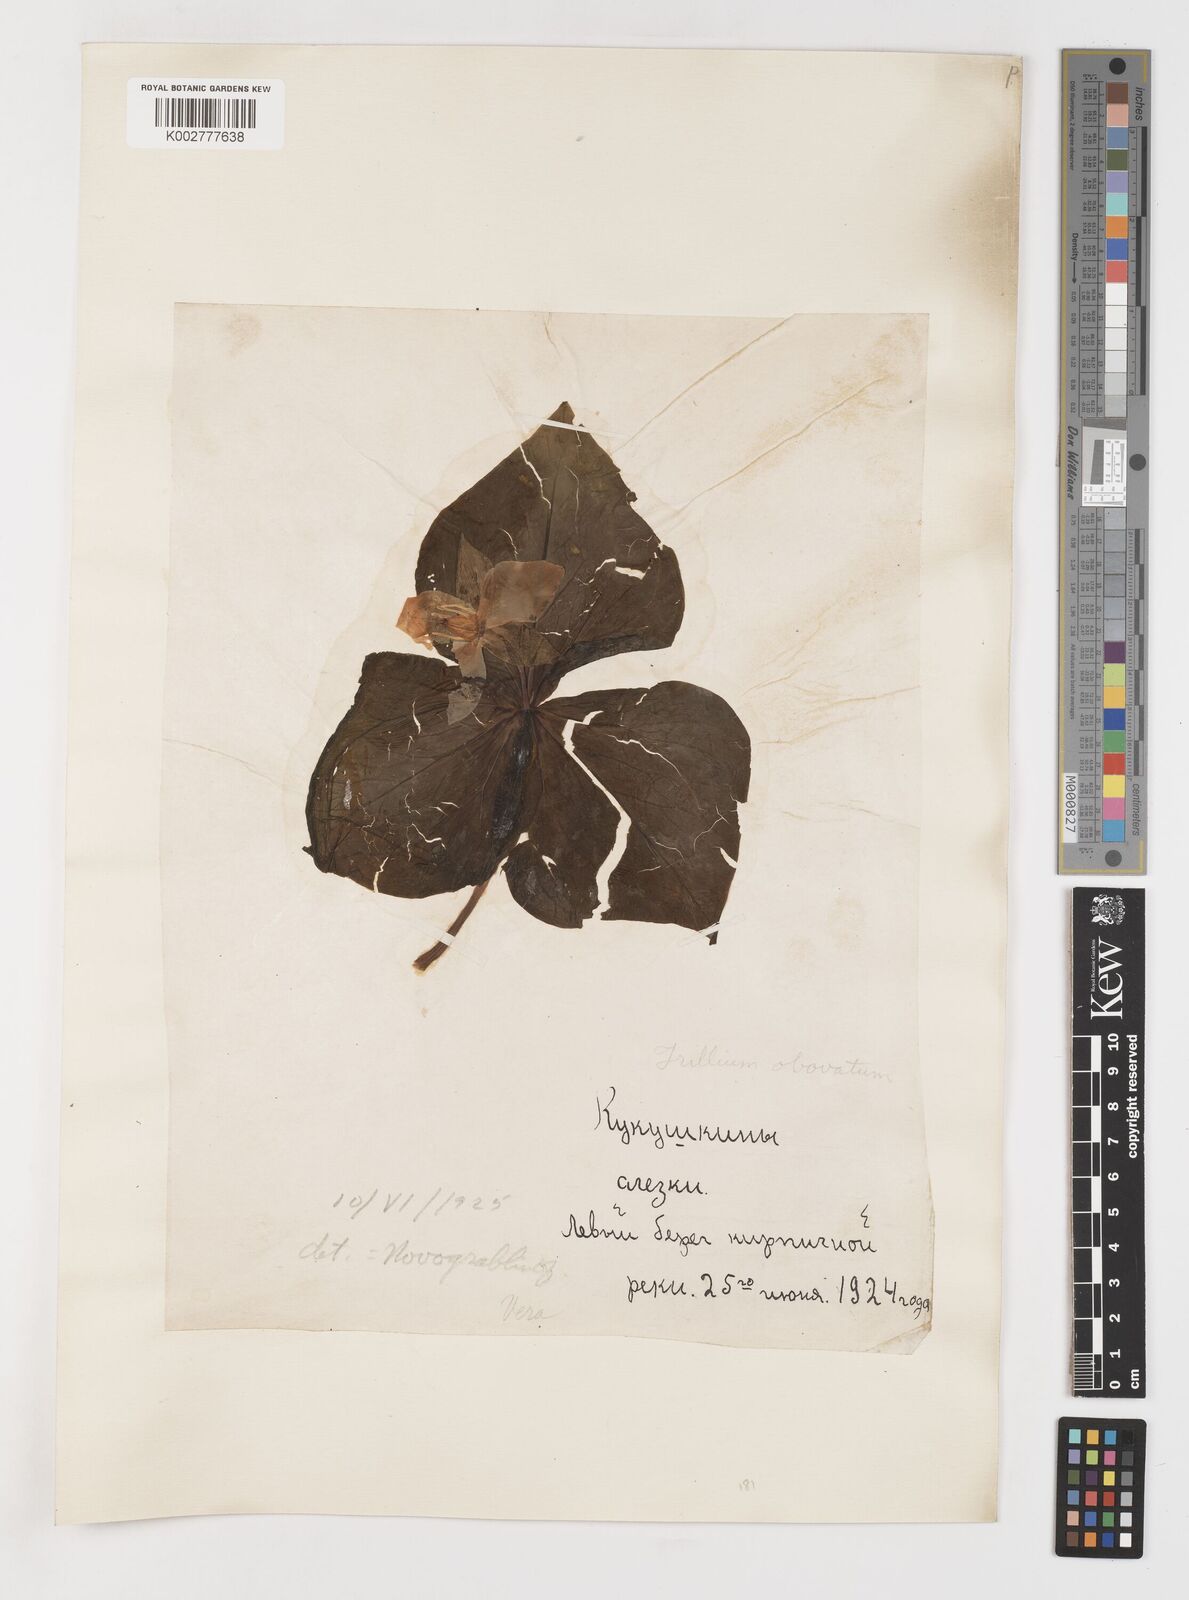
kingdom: Plantae
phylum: Tracheophyta
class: Liliopsida
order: Liliales
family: Melanthiaceae
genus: Trillium
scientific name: Trillium erectum
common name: Purple trillium
